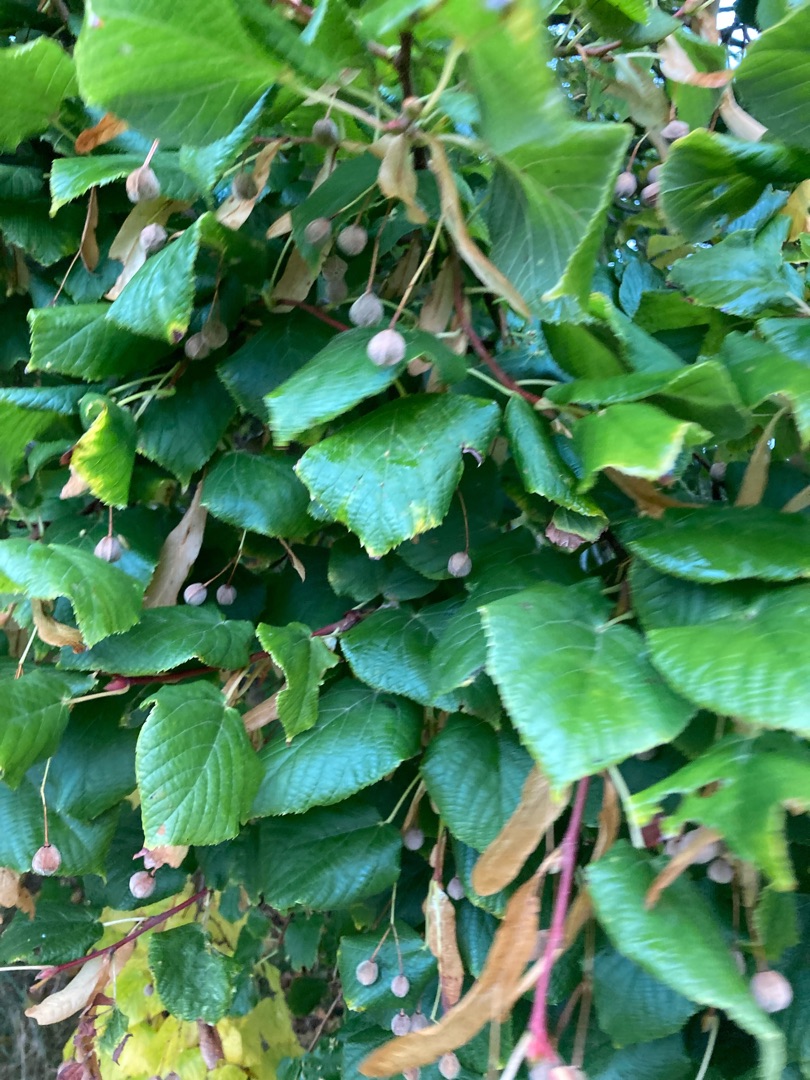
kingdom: Plantae
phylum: Tracheophyta
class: Magnoliopsida
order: Malvales
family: Malvaceae
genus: Tilia
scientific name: Tilia
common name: Lindeslægten
